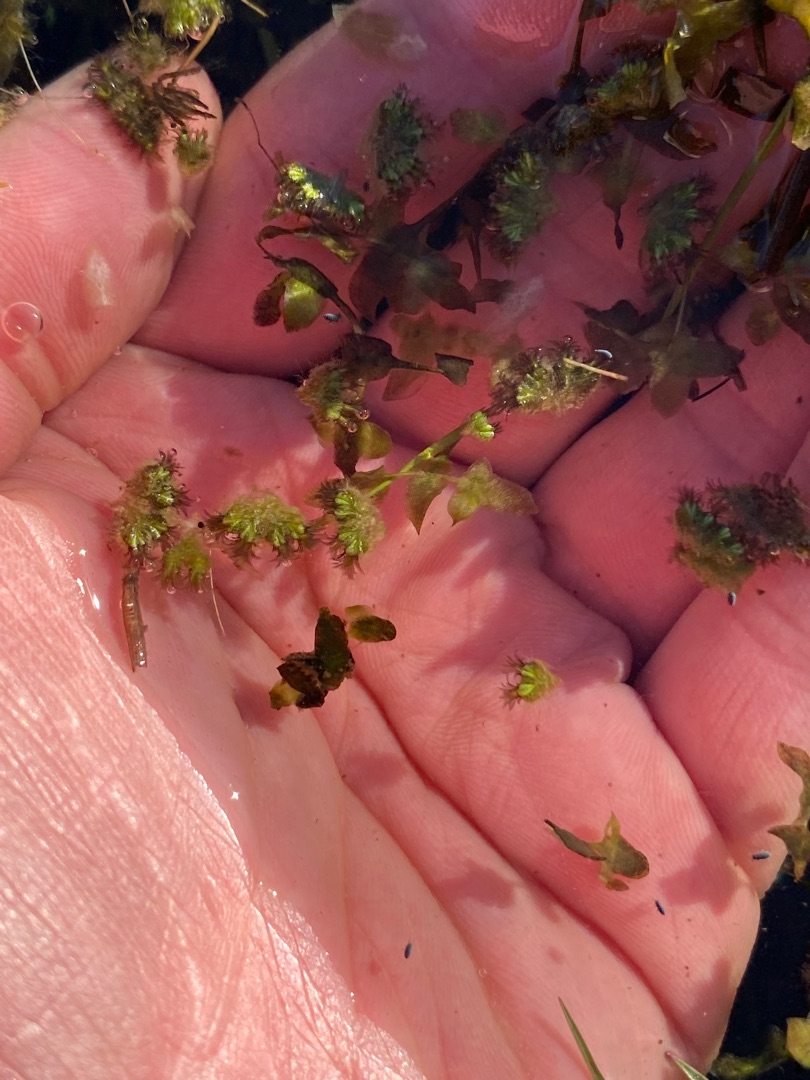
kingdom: Plantae
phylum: Marchantiophyta
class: Marchantiopsida
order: Marchantiales
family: Ricciaceae
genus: Ricciocarpos
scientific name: Ricciocarpos natans
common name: Flydende skælløv
